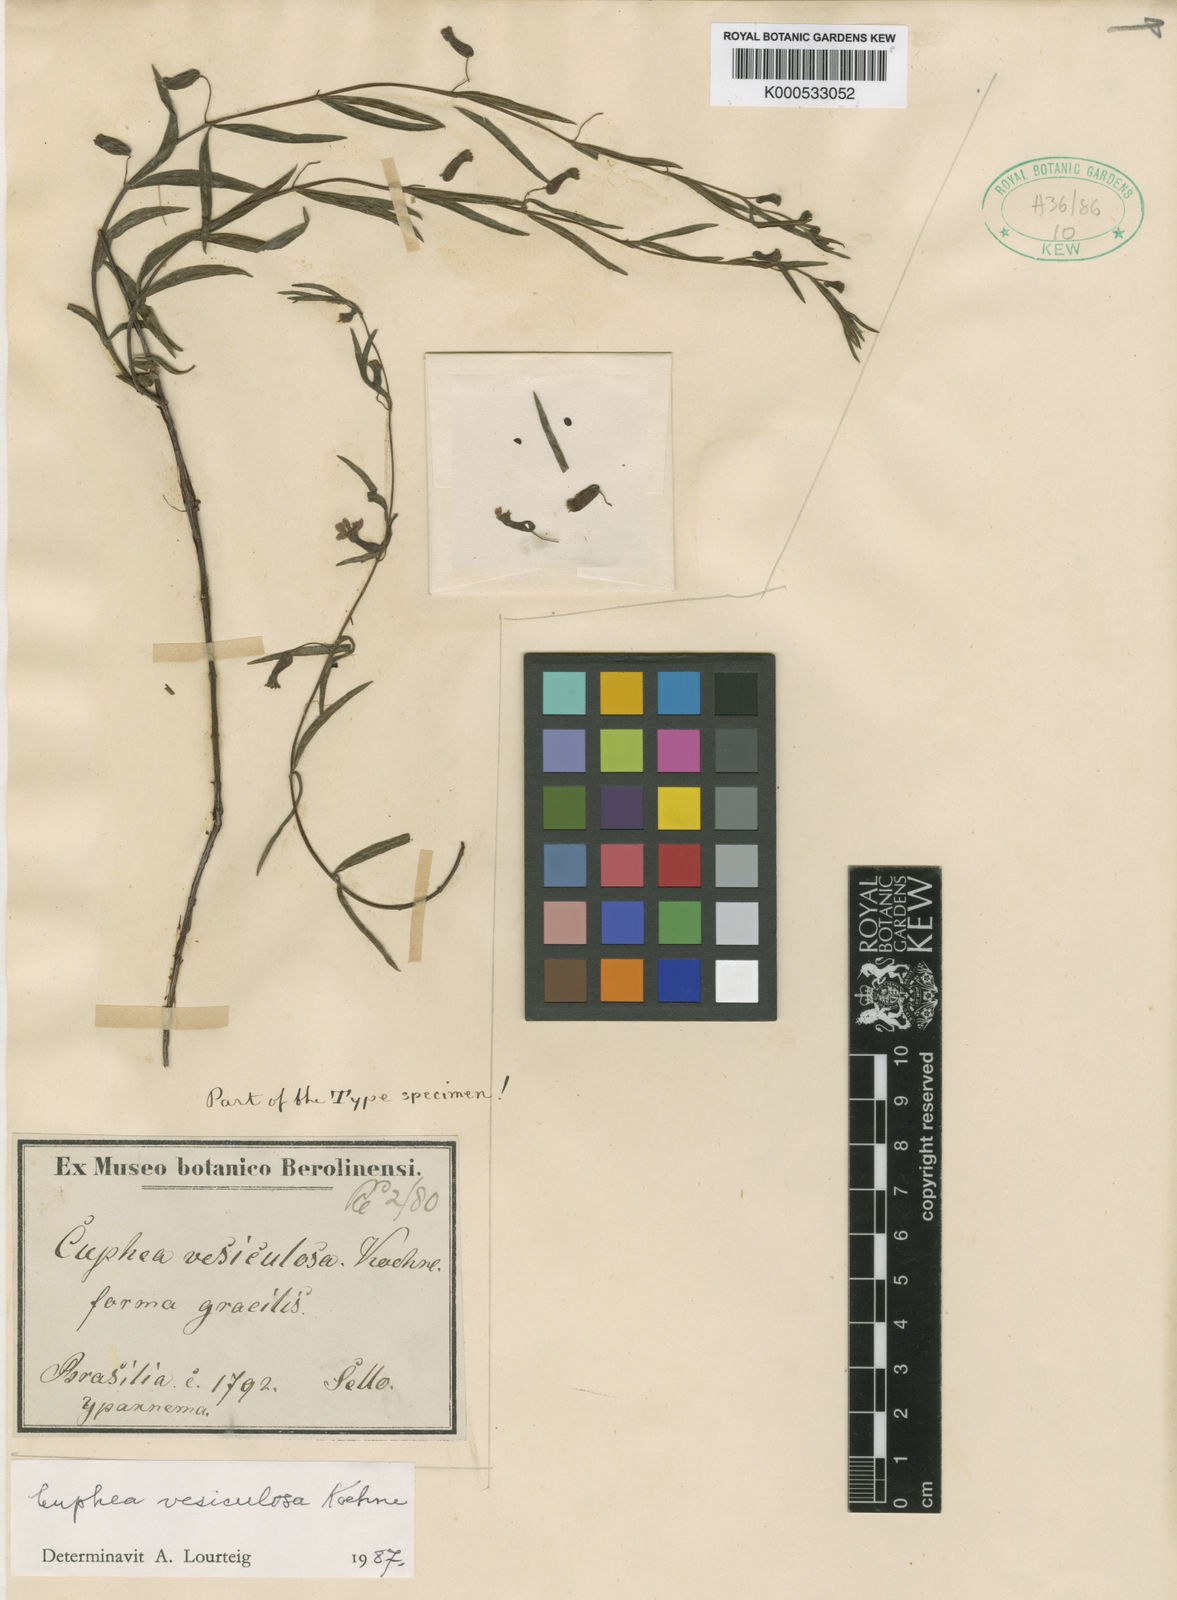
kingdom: Plantae
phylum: Tracheophyta
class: Magnoliopsida
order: Myrtales
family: Lythraceae
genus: Cuphea
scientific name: Cuphea vesiculosa
